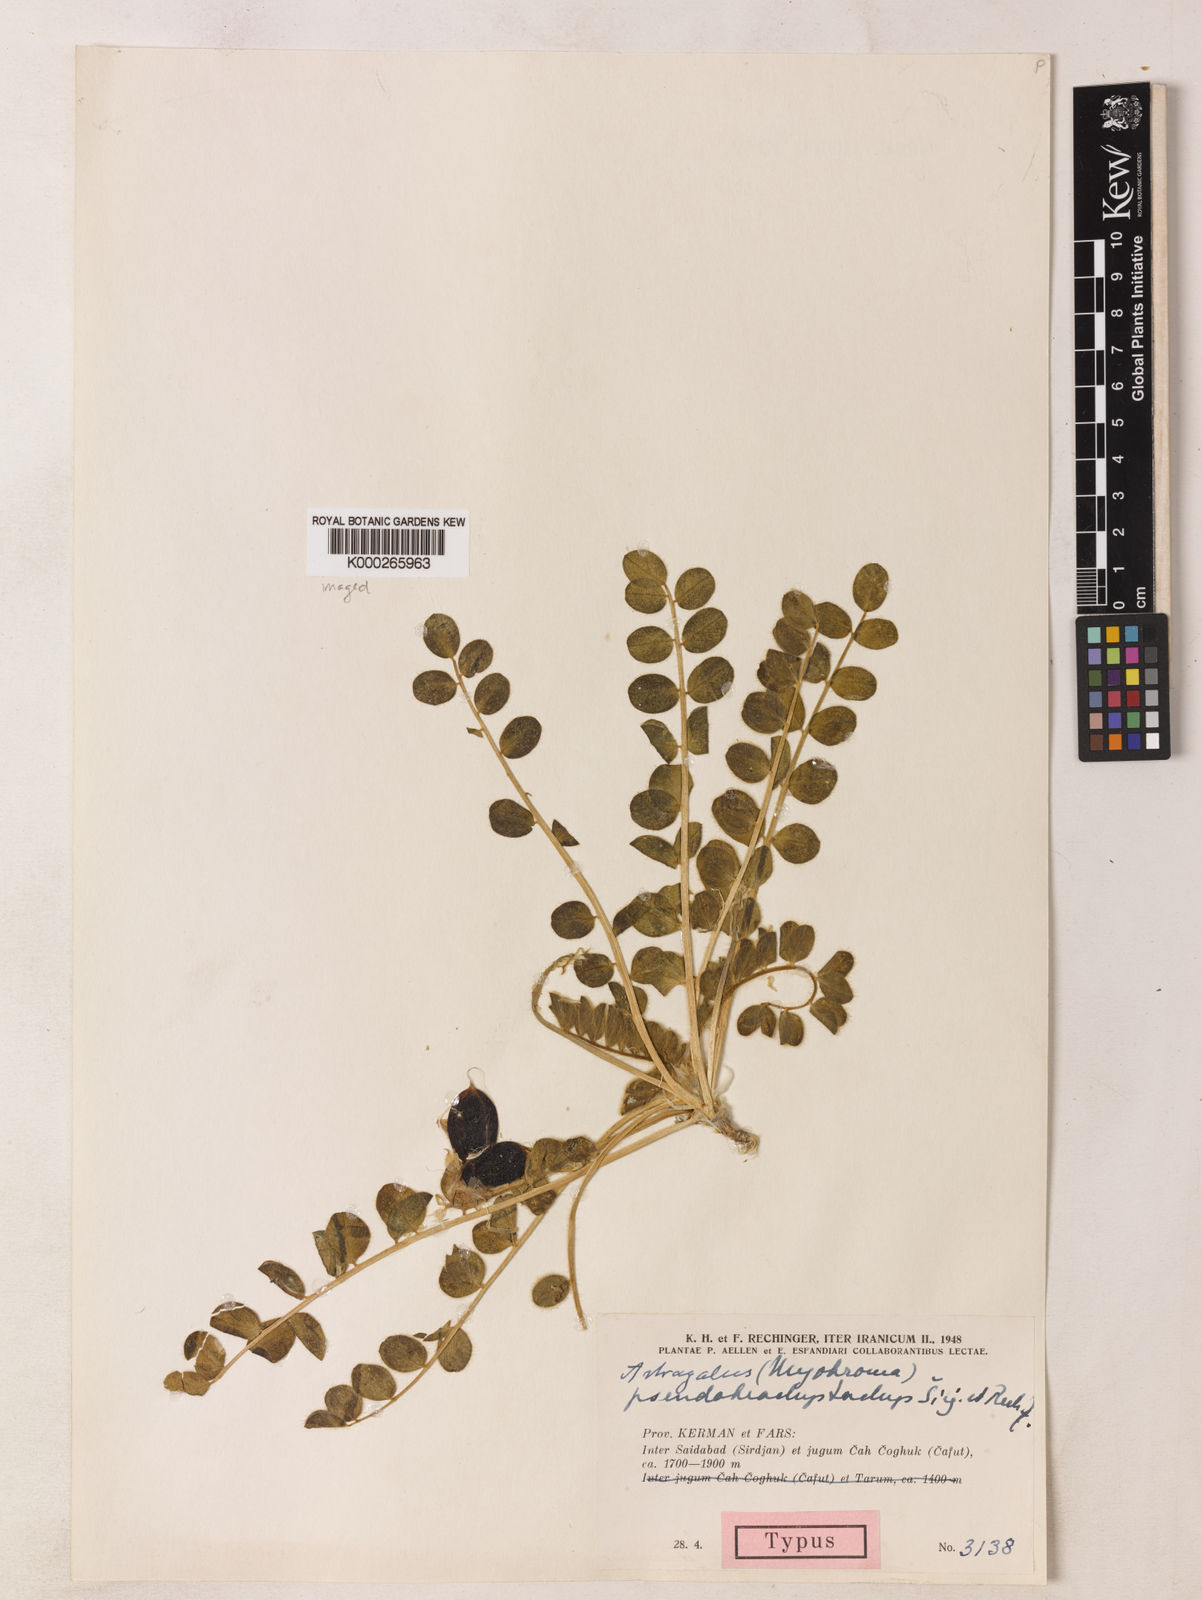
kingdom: Plantae
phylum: Tracheophyta
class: Magnoliopsida
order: Fabales
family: Fabaceae
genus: Astragalus
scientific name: Astragalus pseudobrachystachys
